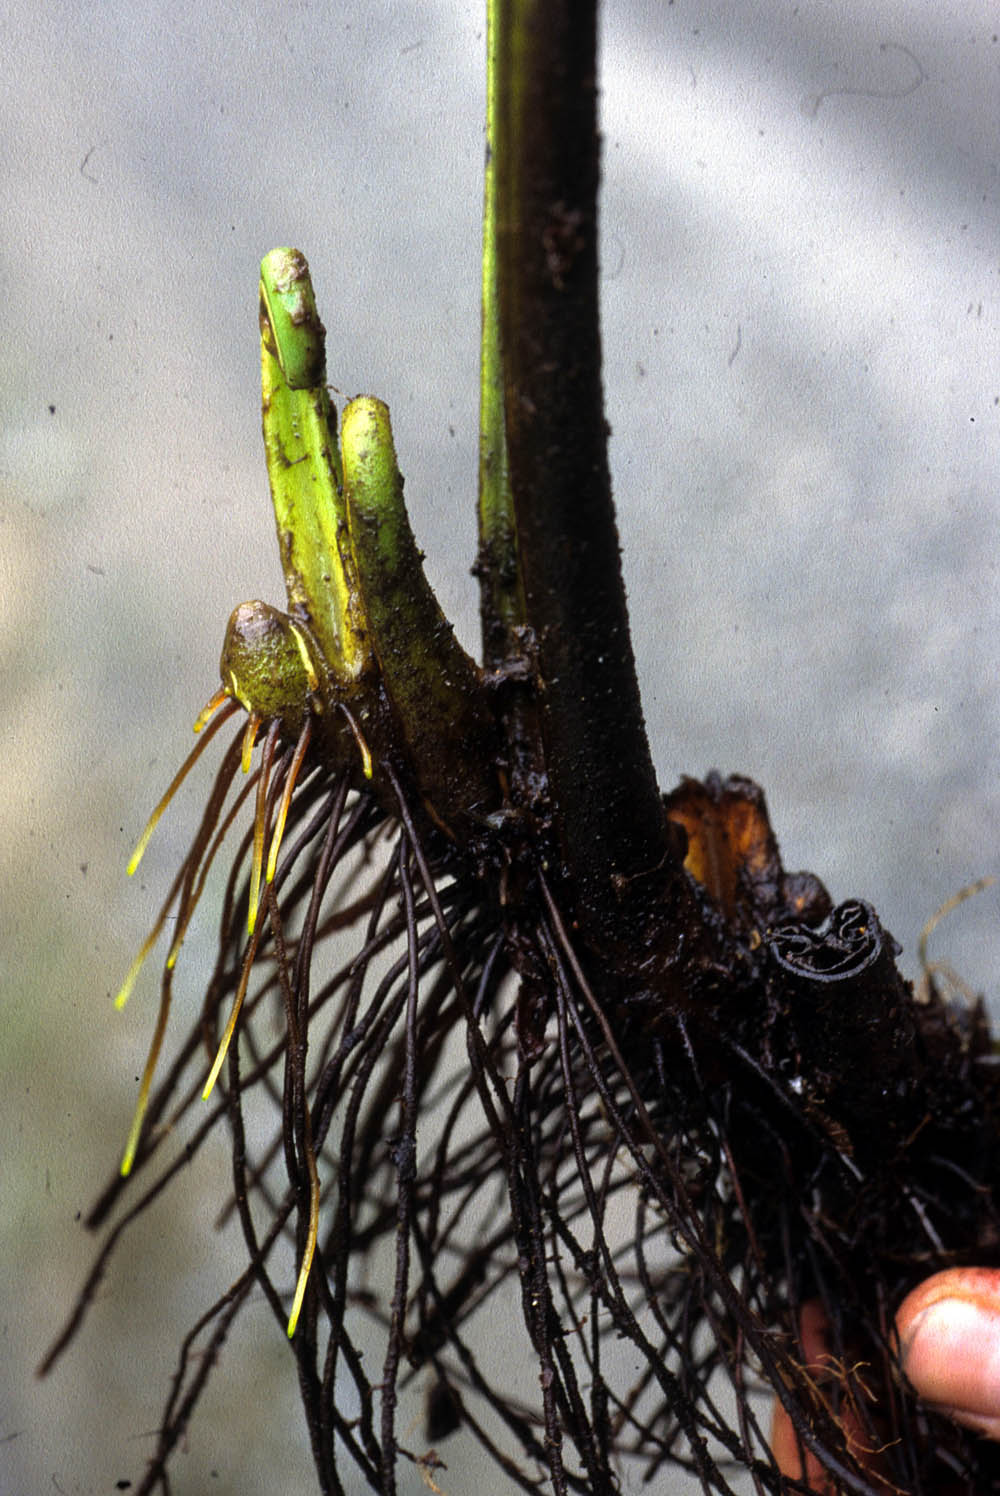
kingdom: Plantae
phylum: Tracheophyta
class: Polypodiopsida
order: Polypodiales
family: Dennstaedtiaceae
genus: Dennstaedtia
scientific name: Dennstaedtia arborescens
